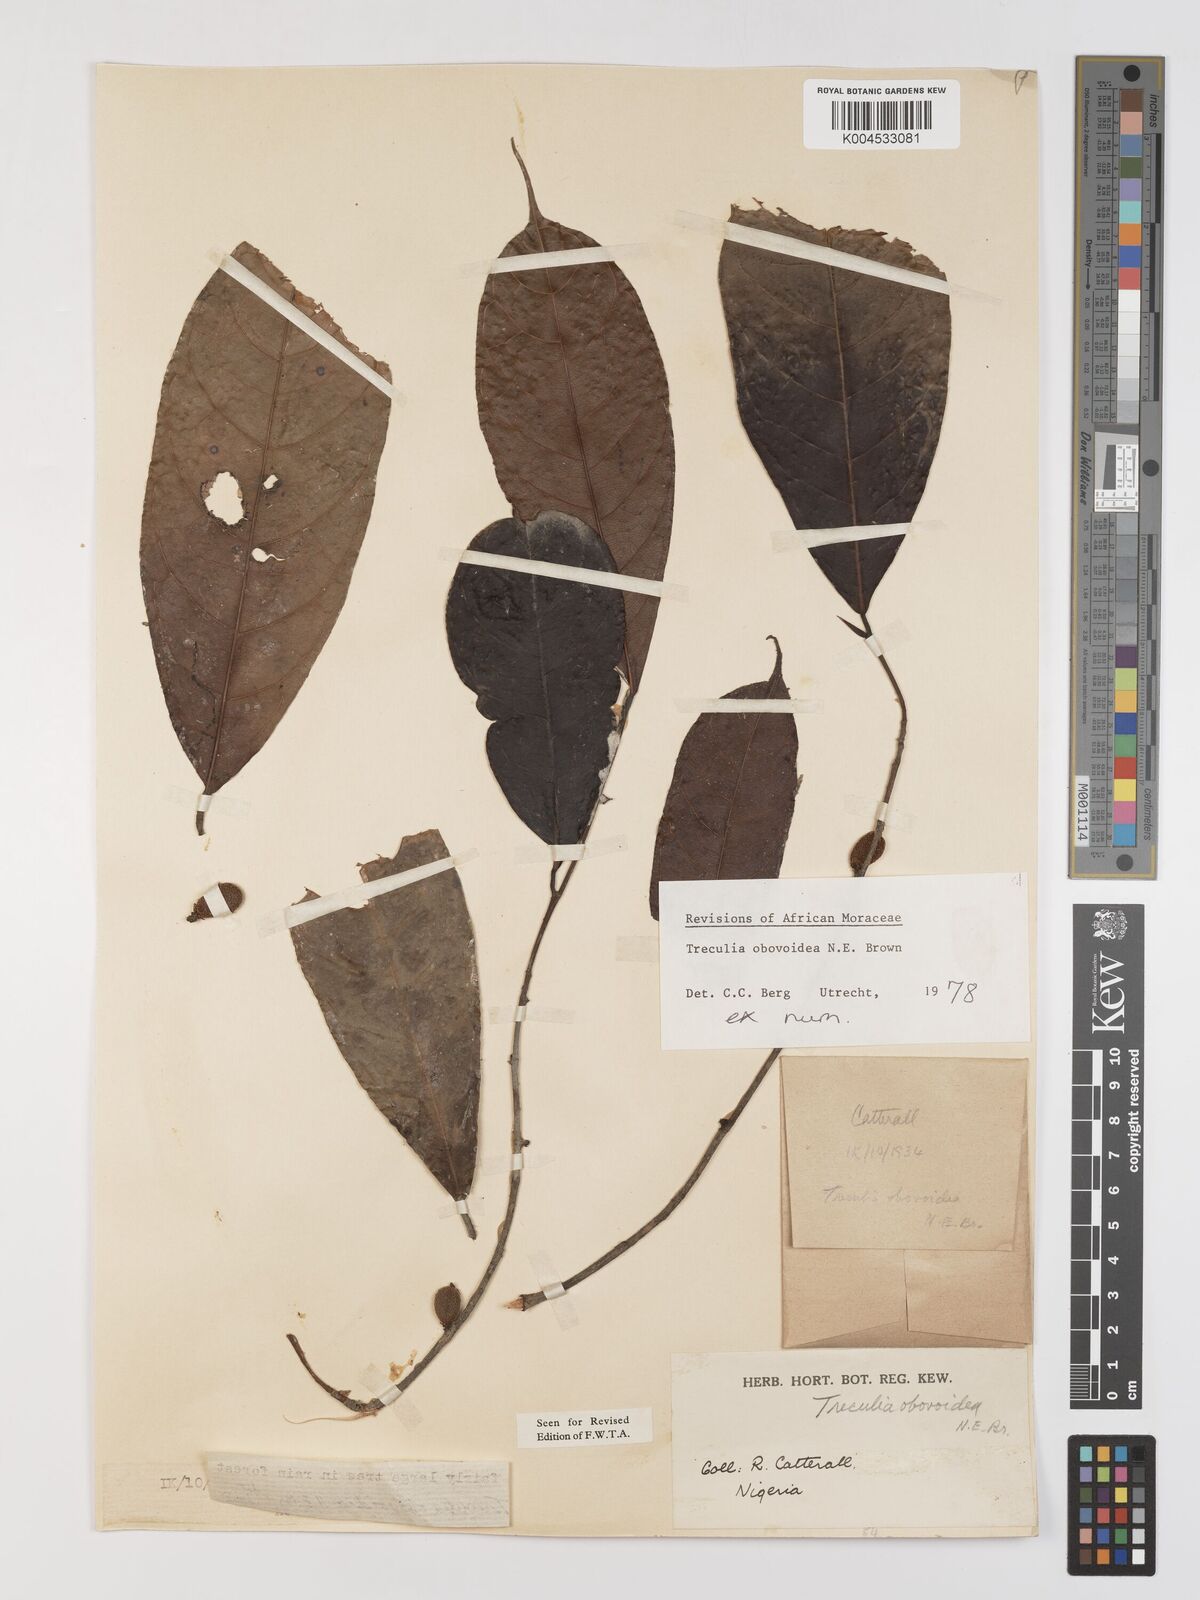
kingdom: Plantae
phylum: Tracheophyta
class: Magnoliopsida
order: Rosales
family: Moraceae
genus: Treculia
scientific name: Treculia obovoidea
